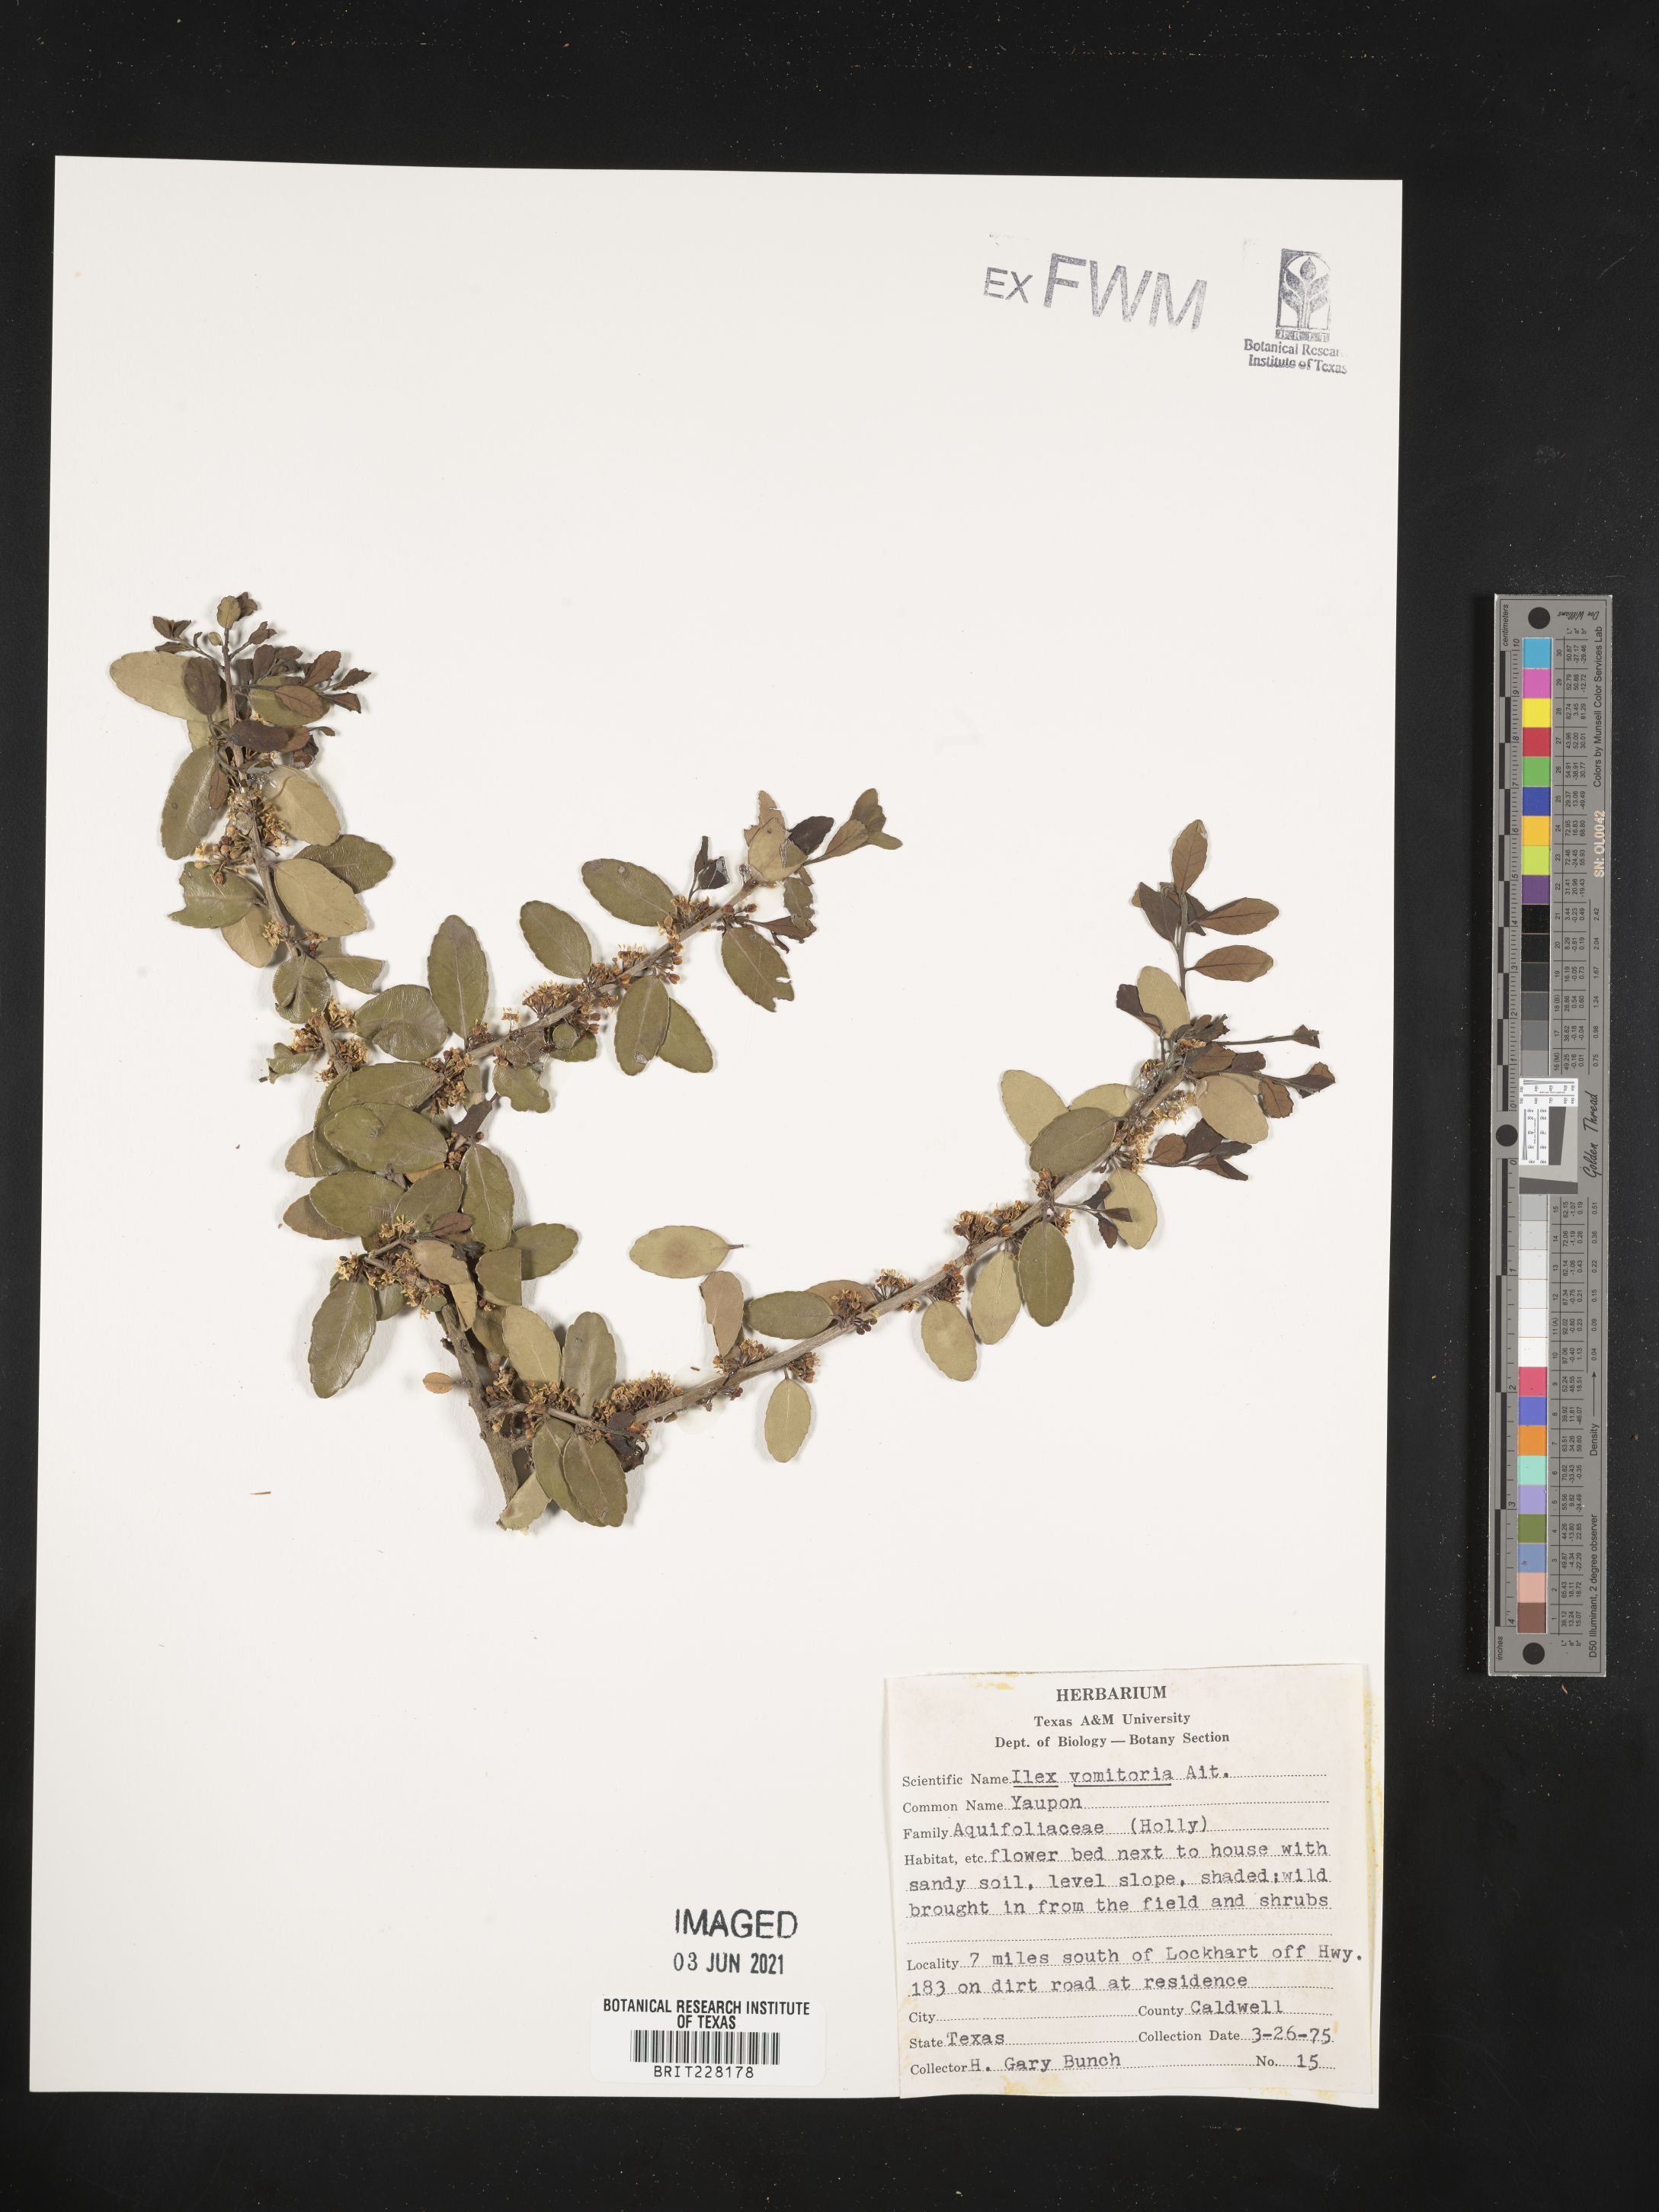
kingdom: Plantae
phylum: Tracheophyta
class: Magnoliopsida
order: Aquifoliales
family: Aquifoliaceae
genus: Ilex
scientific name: Ilex vomitoria
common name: Yaupon holly
